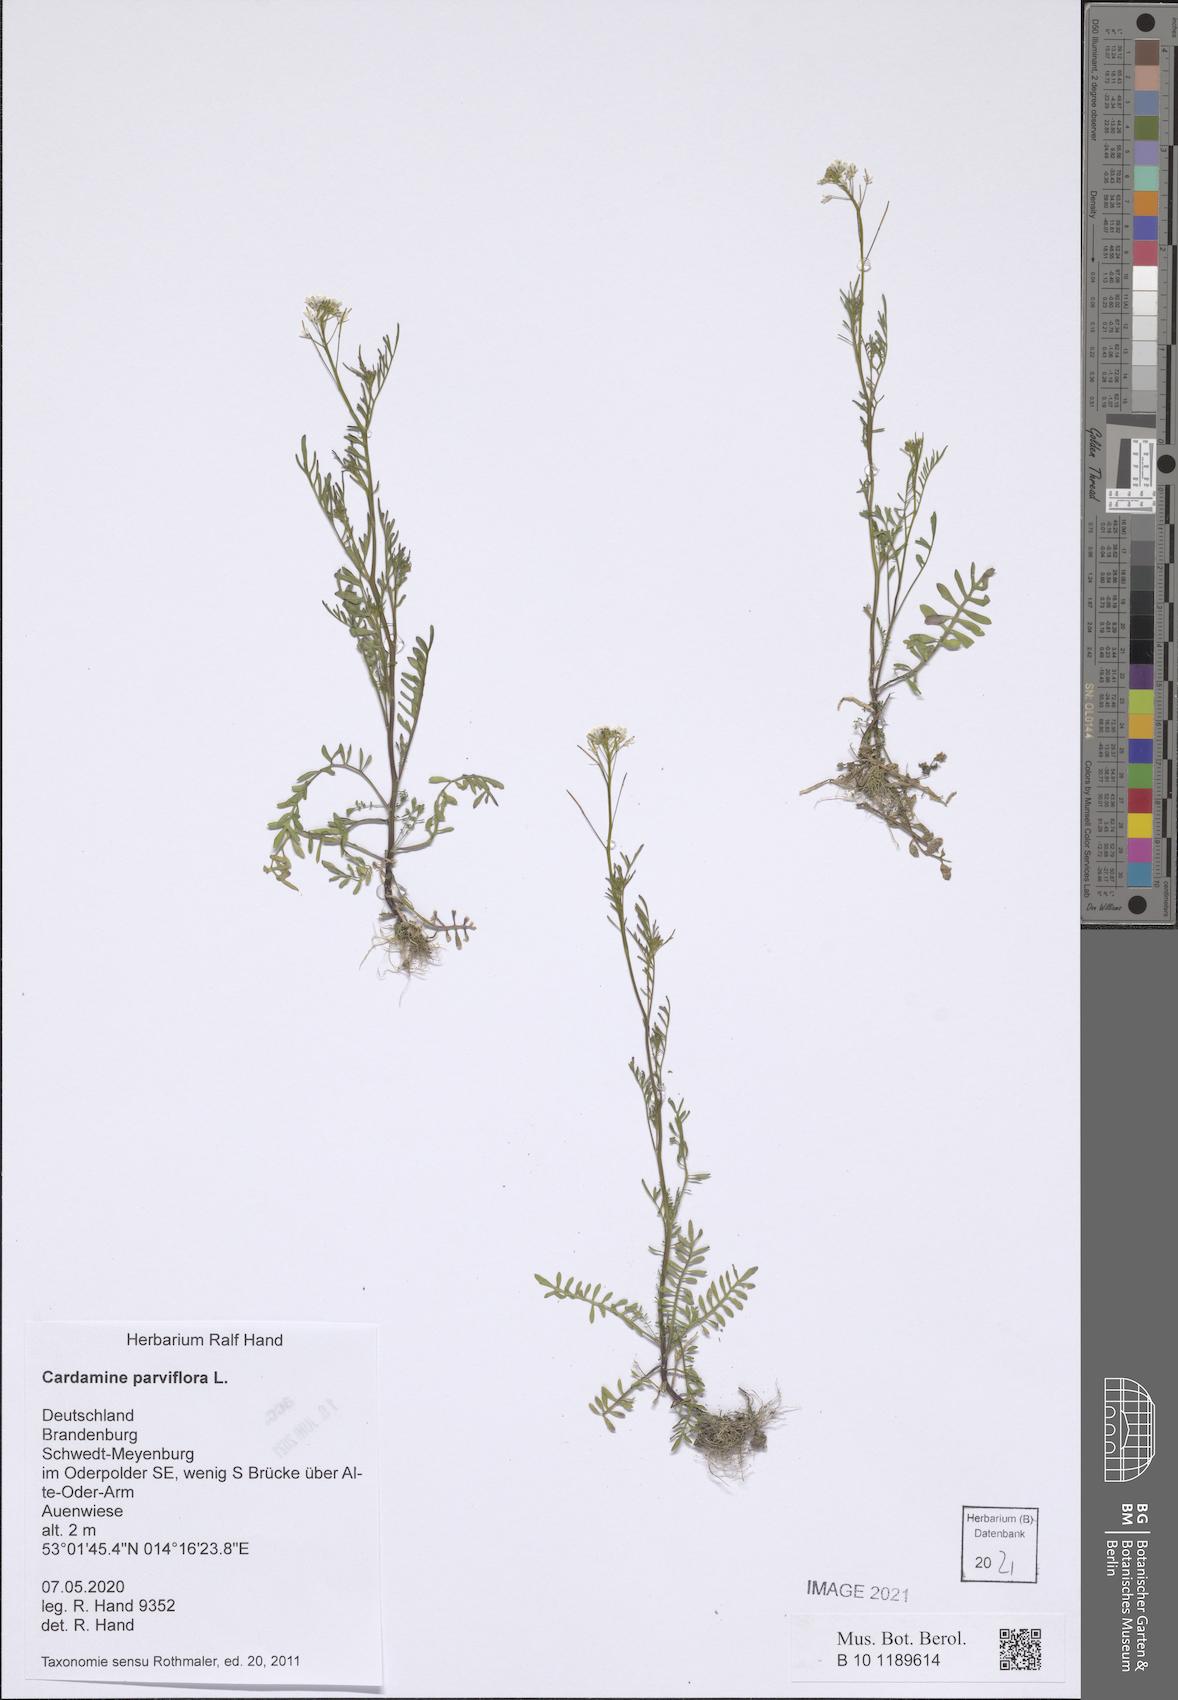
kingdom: Plantae
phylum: Tracheophyta
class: Magnoliopsida
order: Brassicales
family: Brassicaceae
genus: Cardamine
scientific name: Cardamine parviflora
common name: Sand bittercress
